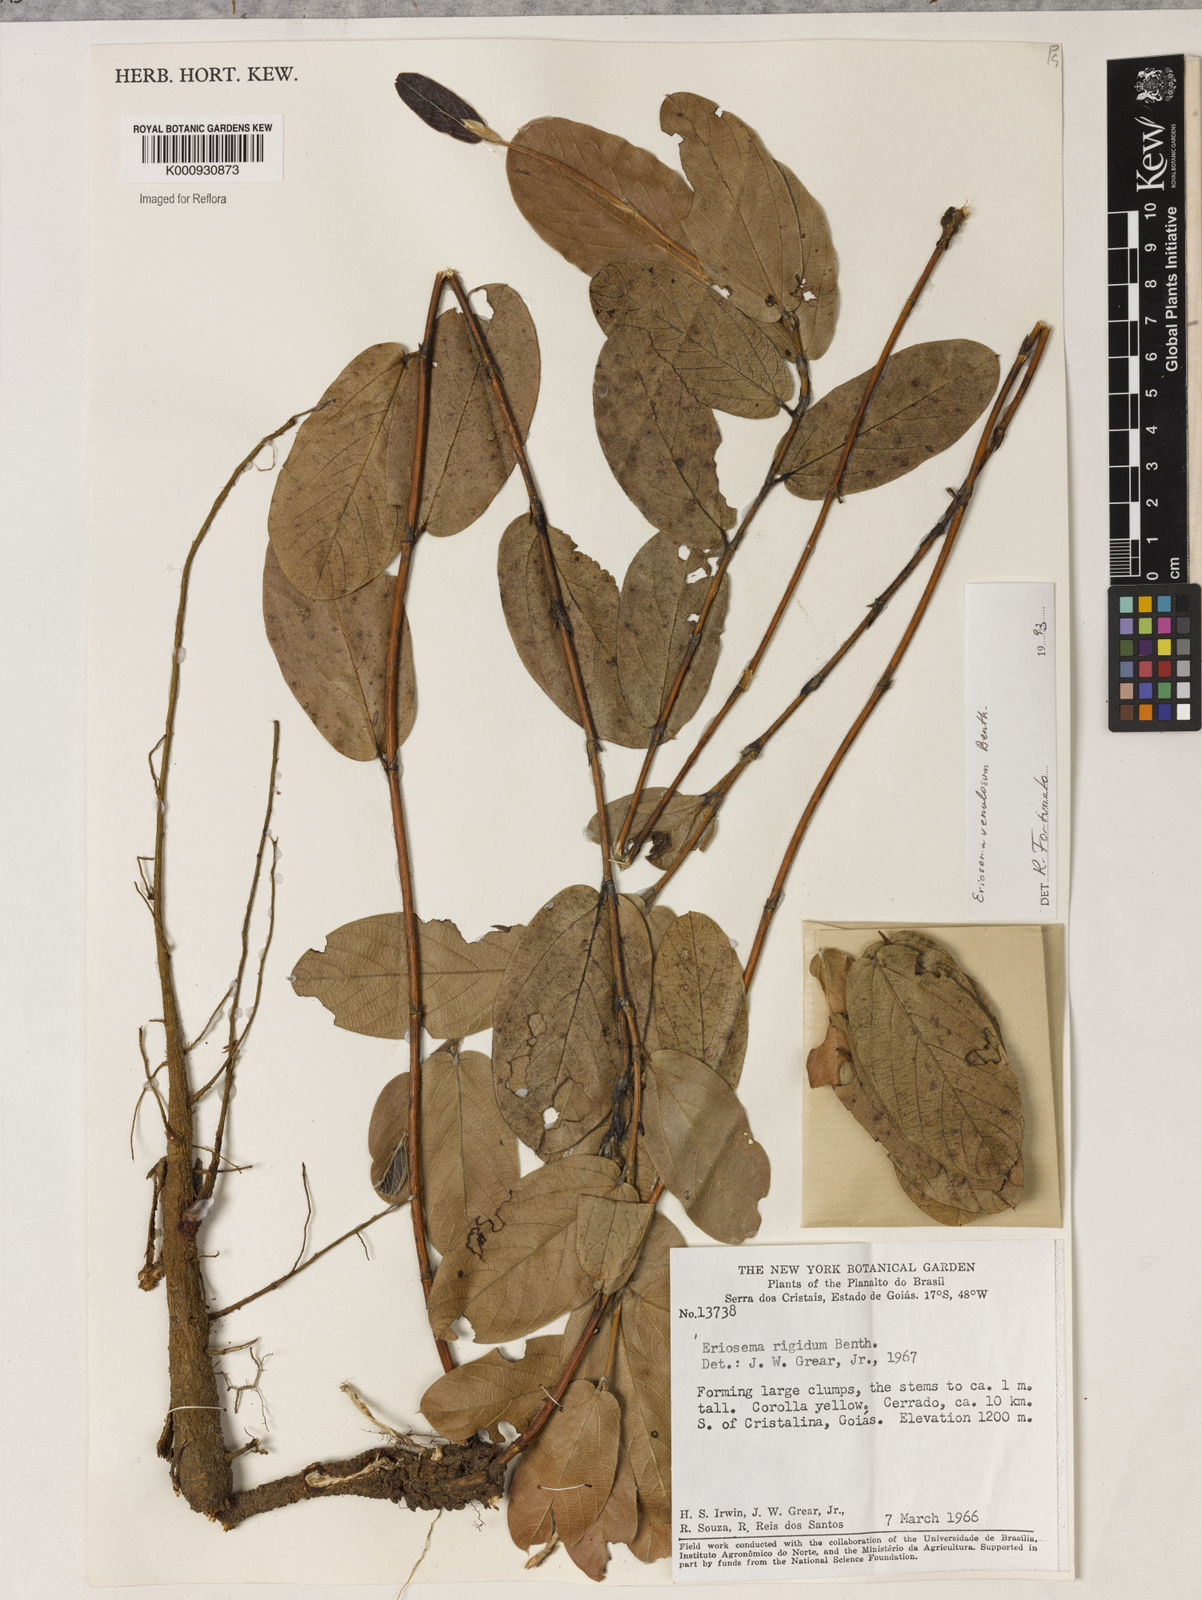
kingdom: Plantae
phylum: Tracheophyta
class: Magnoliopsida
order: Fabales
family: Fabaceae
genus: Eriosema
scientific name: Eriosema venulosum
